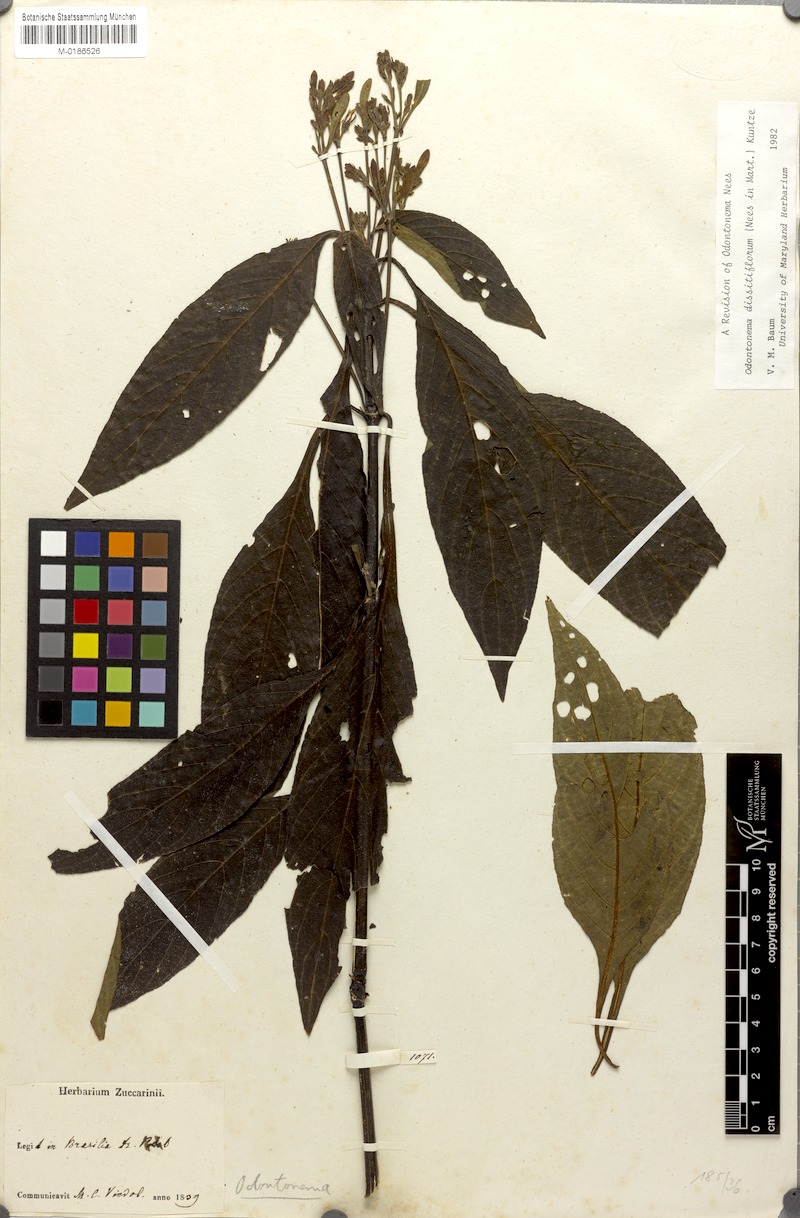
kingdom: Plantae
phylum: Tracheophyta
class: Magnoliopsida
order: Lamiales
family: Acanthaceae
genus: Odontonema
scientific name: Odontonema dissitiflorum
